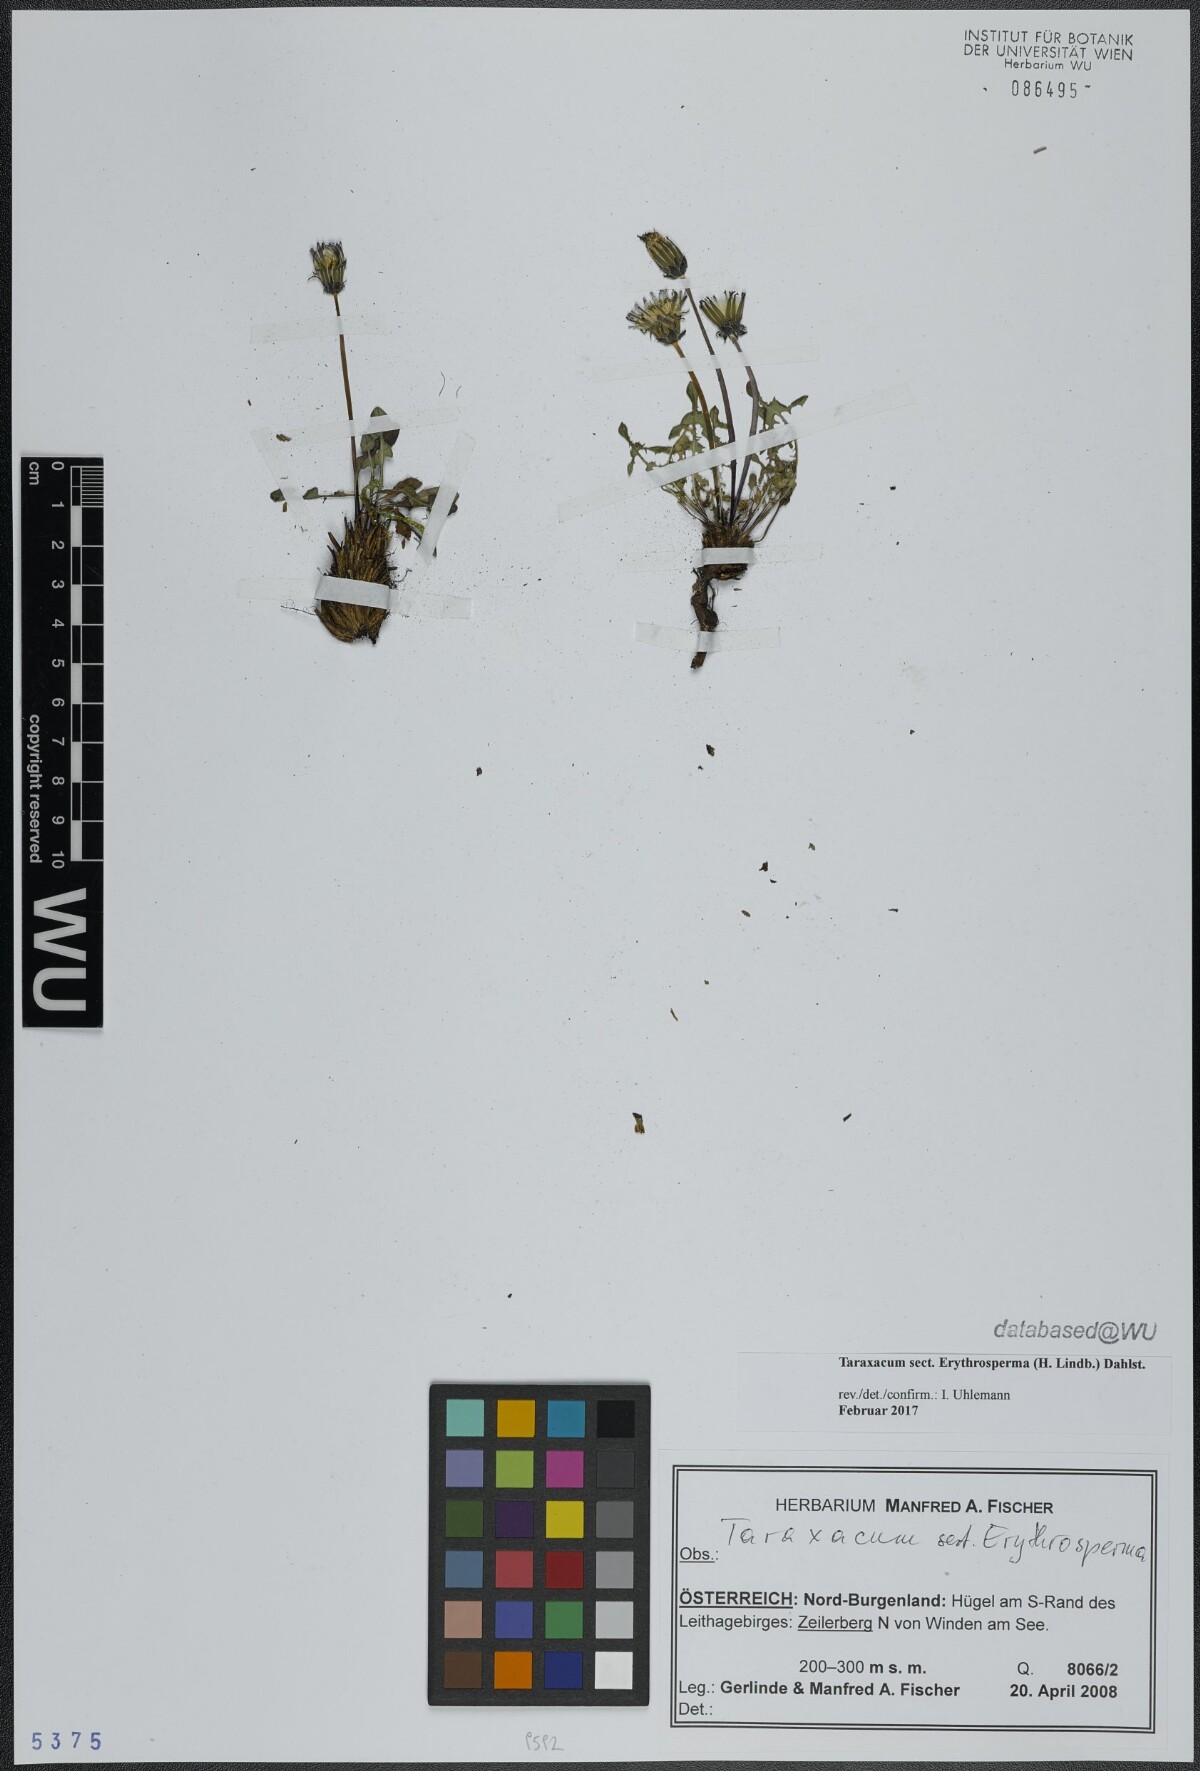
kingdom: Plantae
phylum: Tracheophyta
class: Magnoliopsida
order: Asterales
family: Asteraceae
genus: Taraxacum
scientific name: Taraxacum
